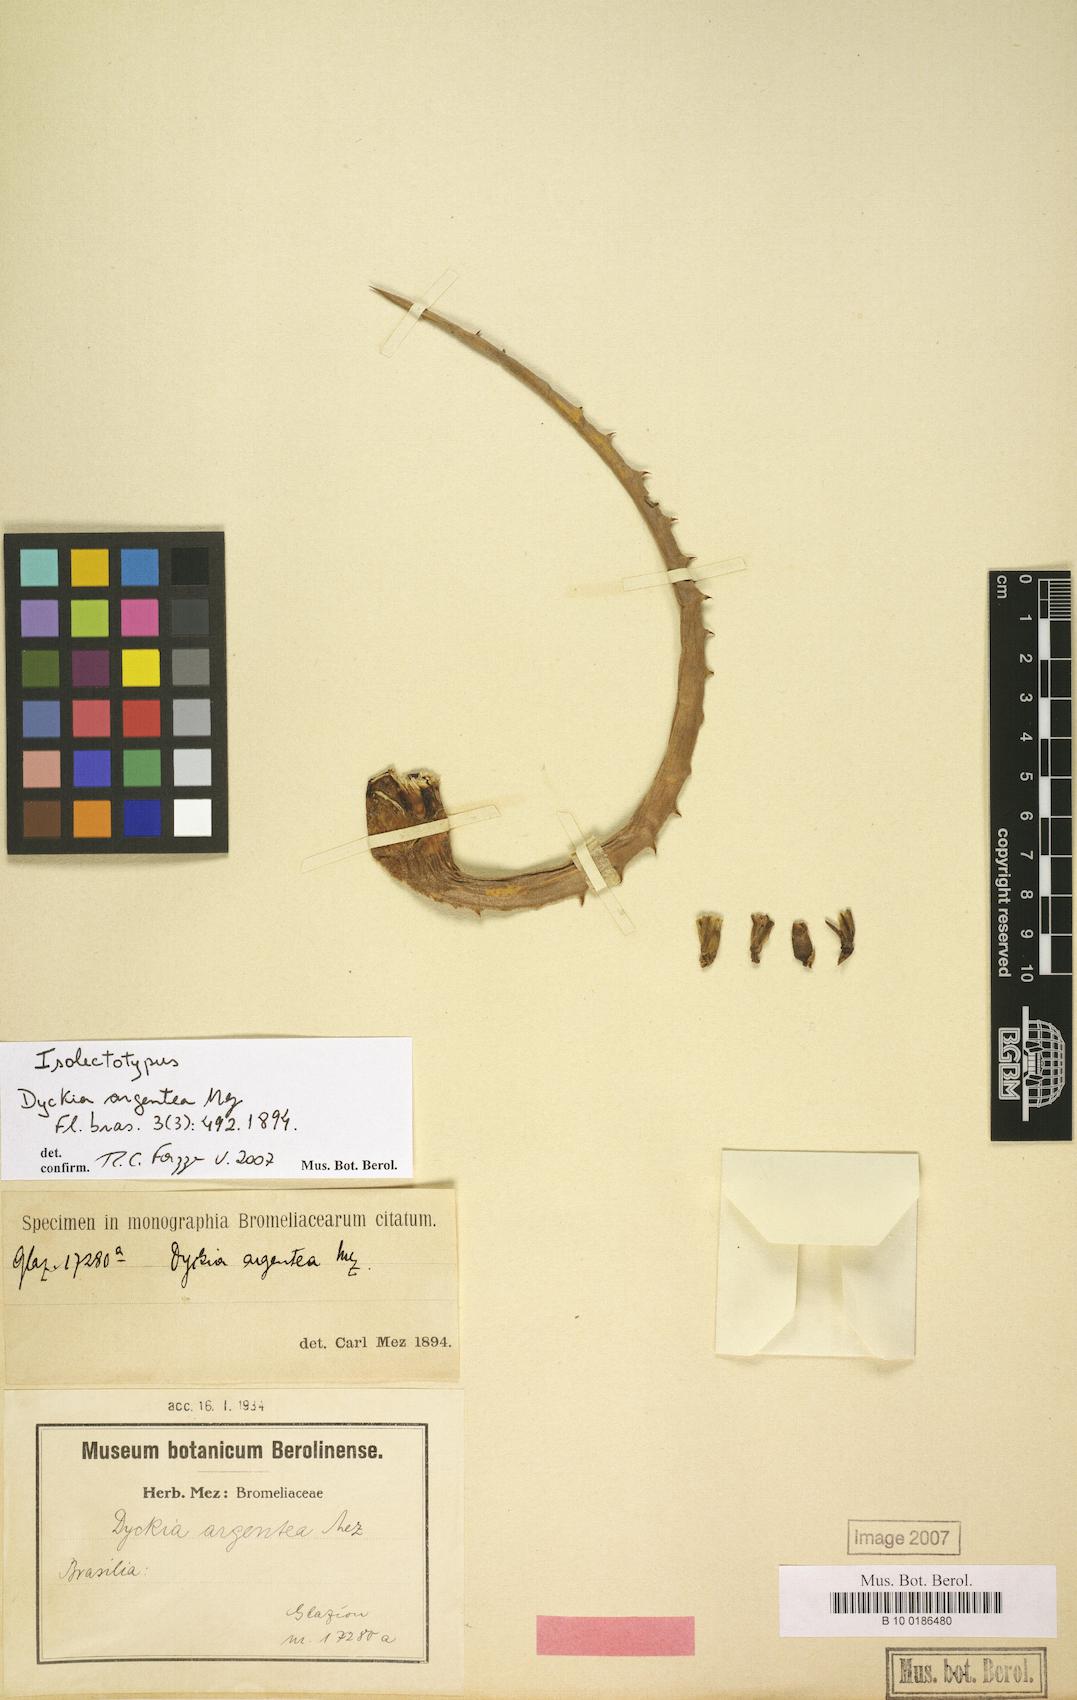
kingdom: Plantae
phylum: Tracheophyta
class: Liliopsida
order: Poales
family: Bromeliaceae
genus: Dyckia
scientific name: Dyckia mezii
